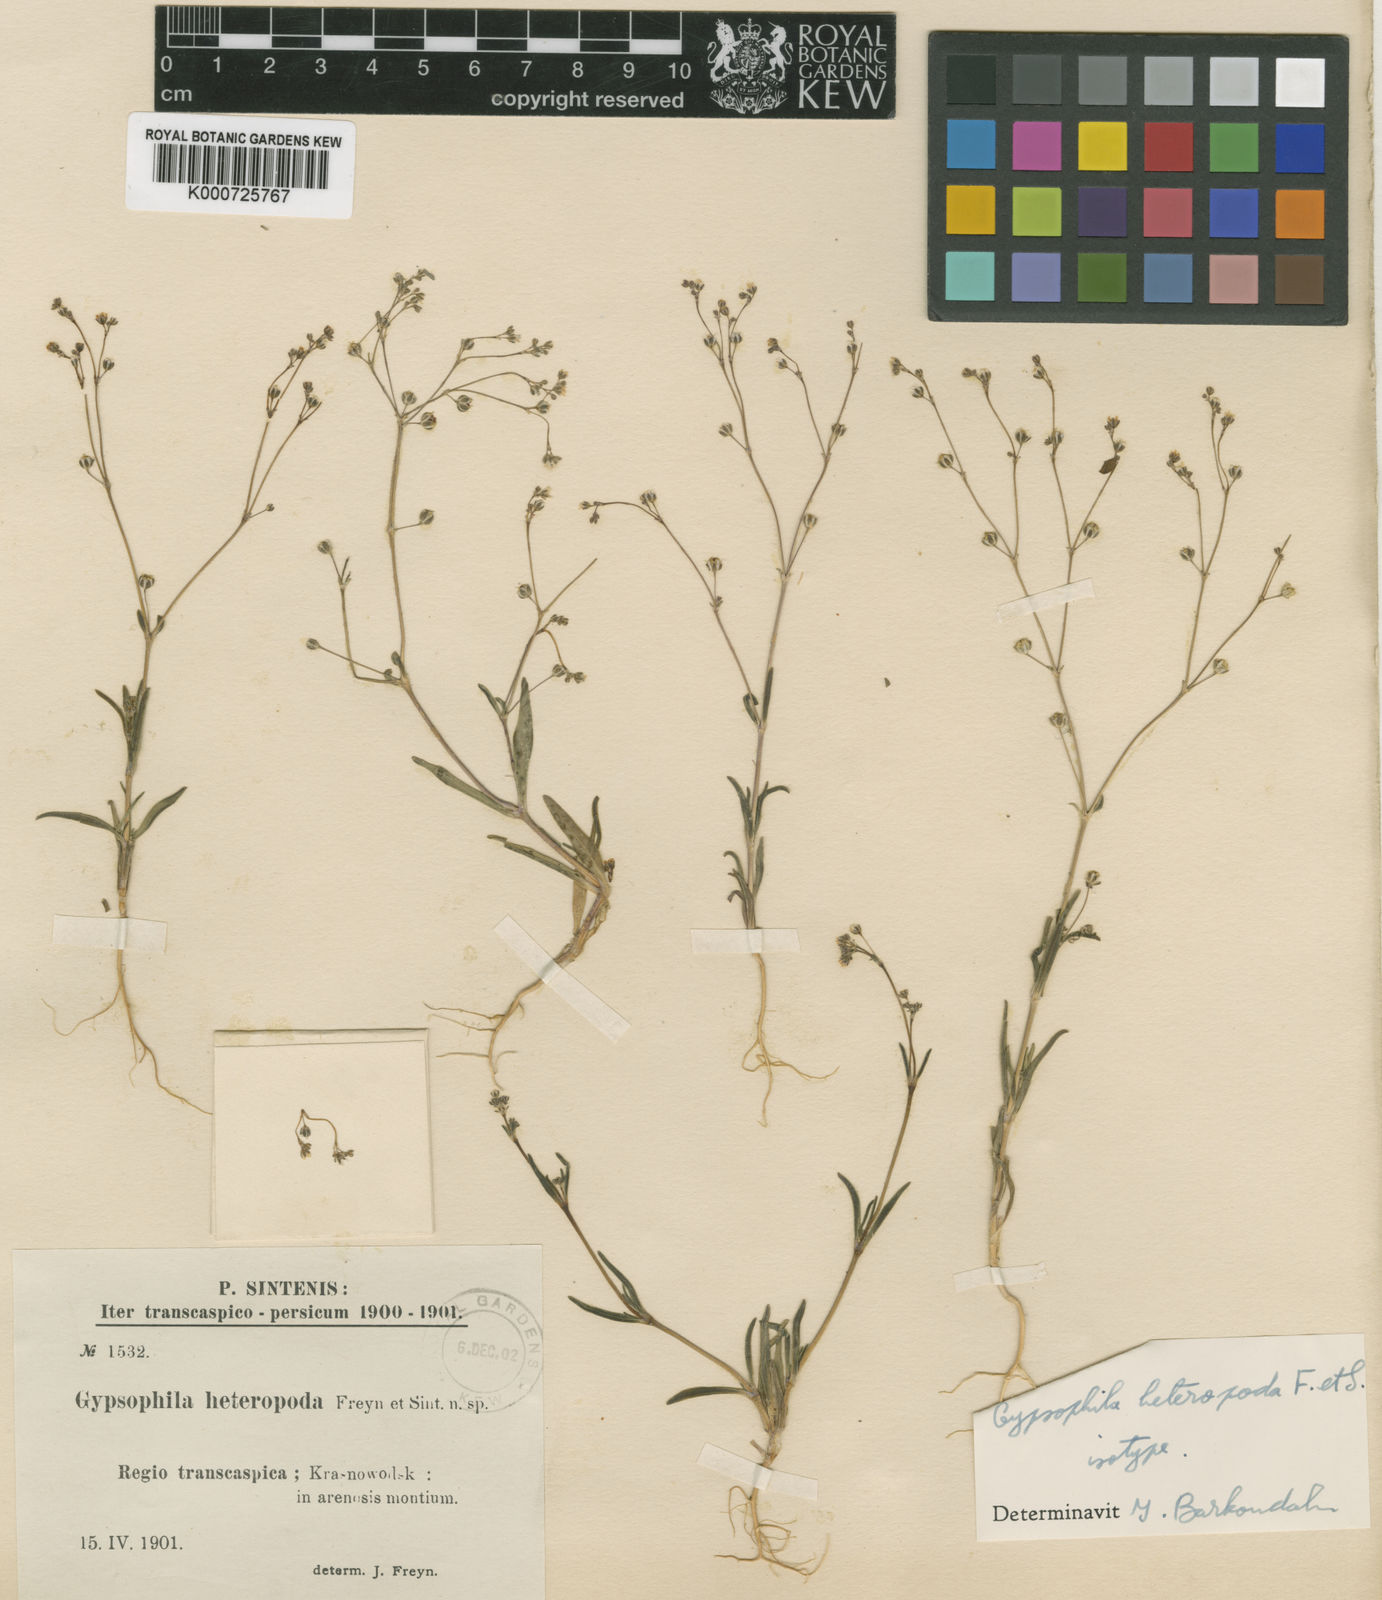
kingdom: Plantae
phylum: Tracheophyta
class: Magnoliopsida
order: Caryophyllales
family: Caryophyllaceae
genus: Gypsophila
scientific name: Gypsophila heteropoda
